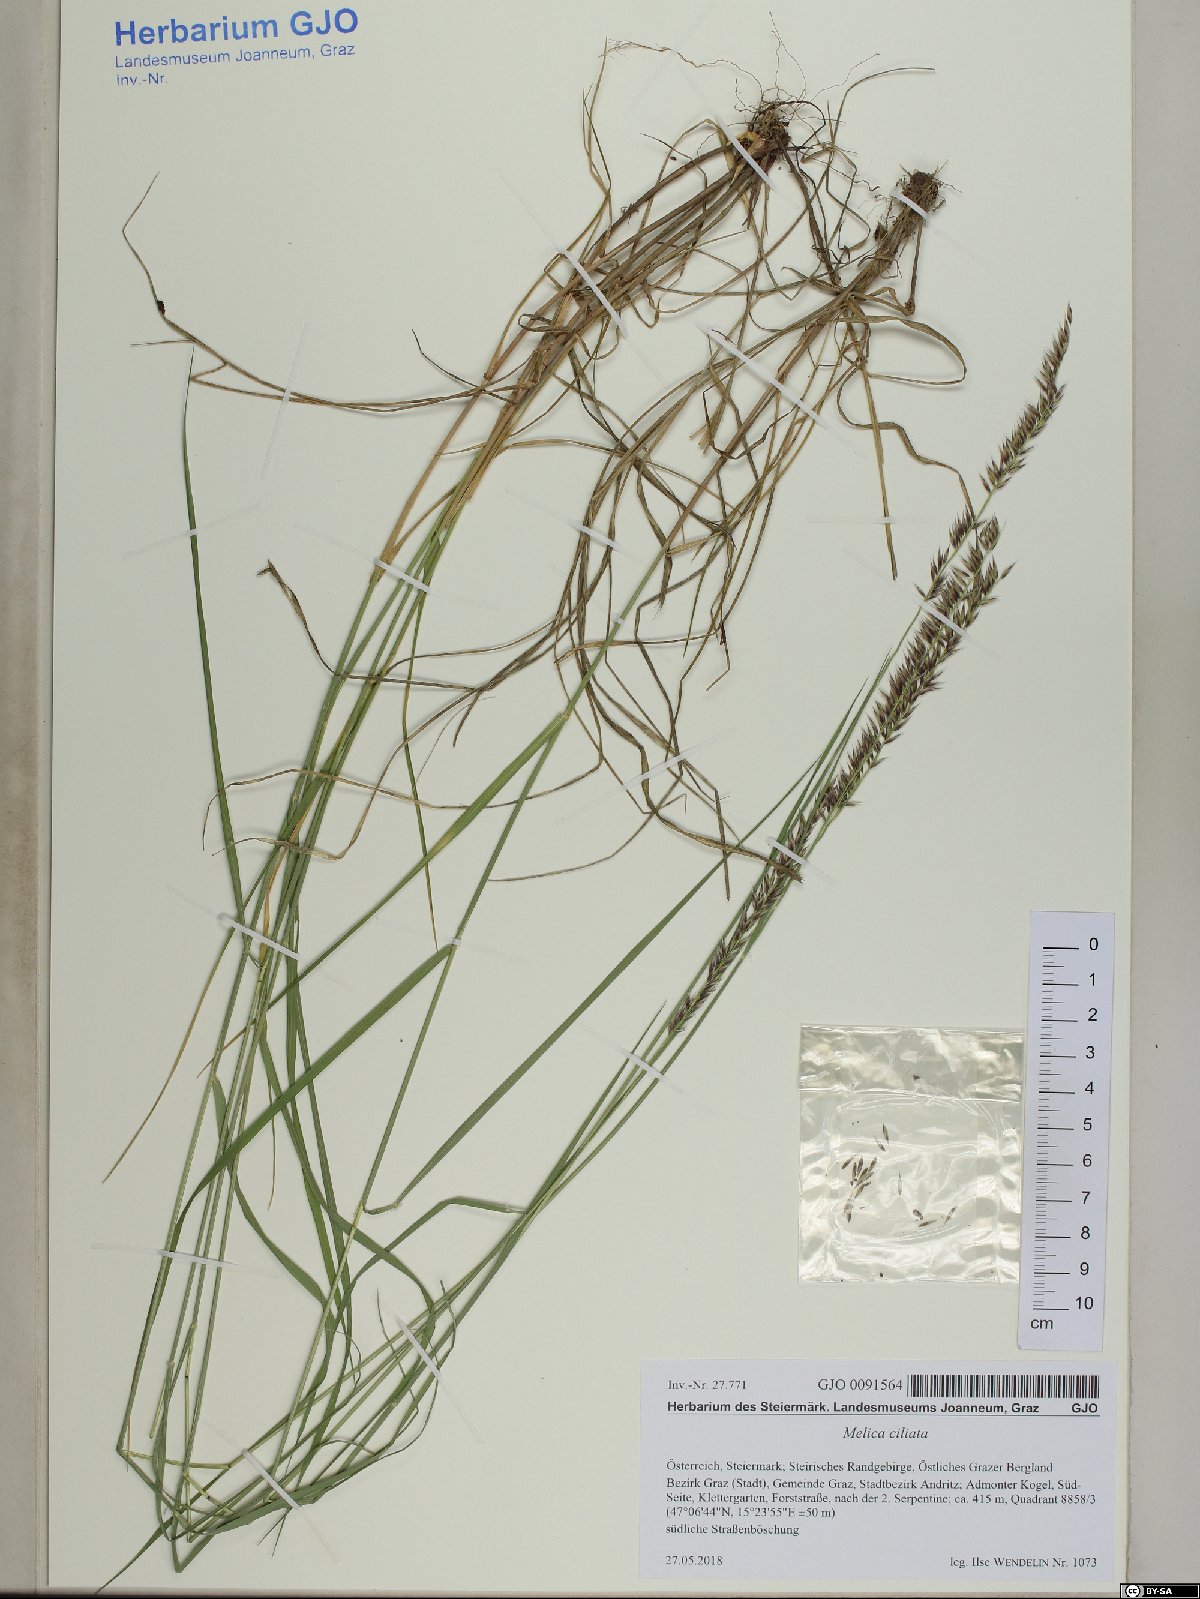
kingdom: Plantae
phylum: Tracheophyta
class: Liliopsida
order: Poales
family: Poaceae
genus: Melica
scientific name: Melica ciliata
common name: Hairy melicgrass
